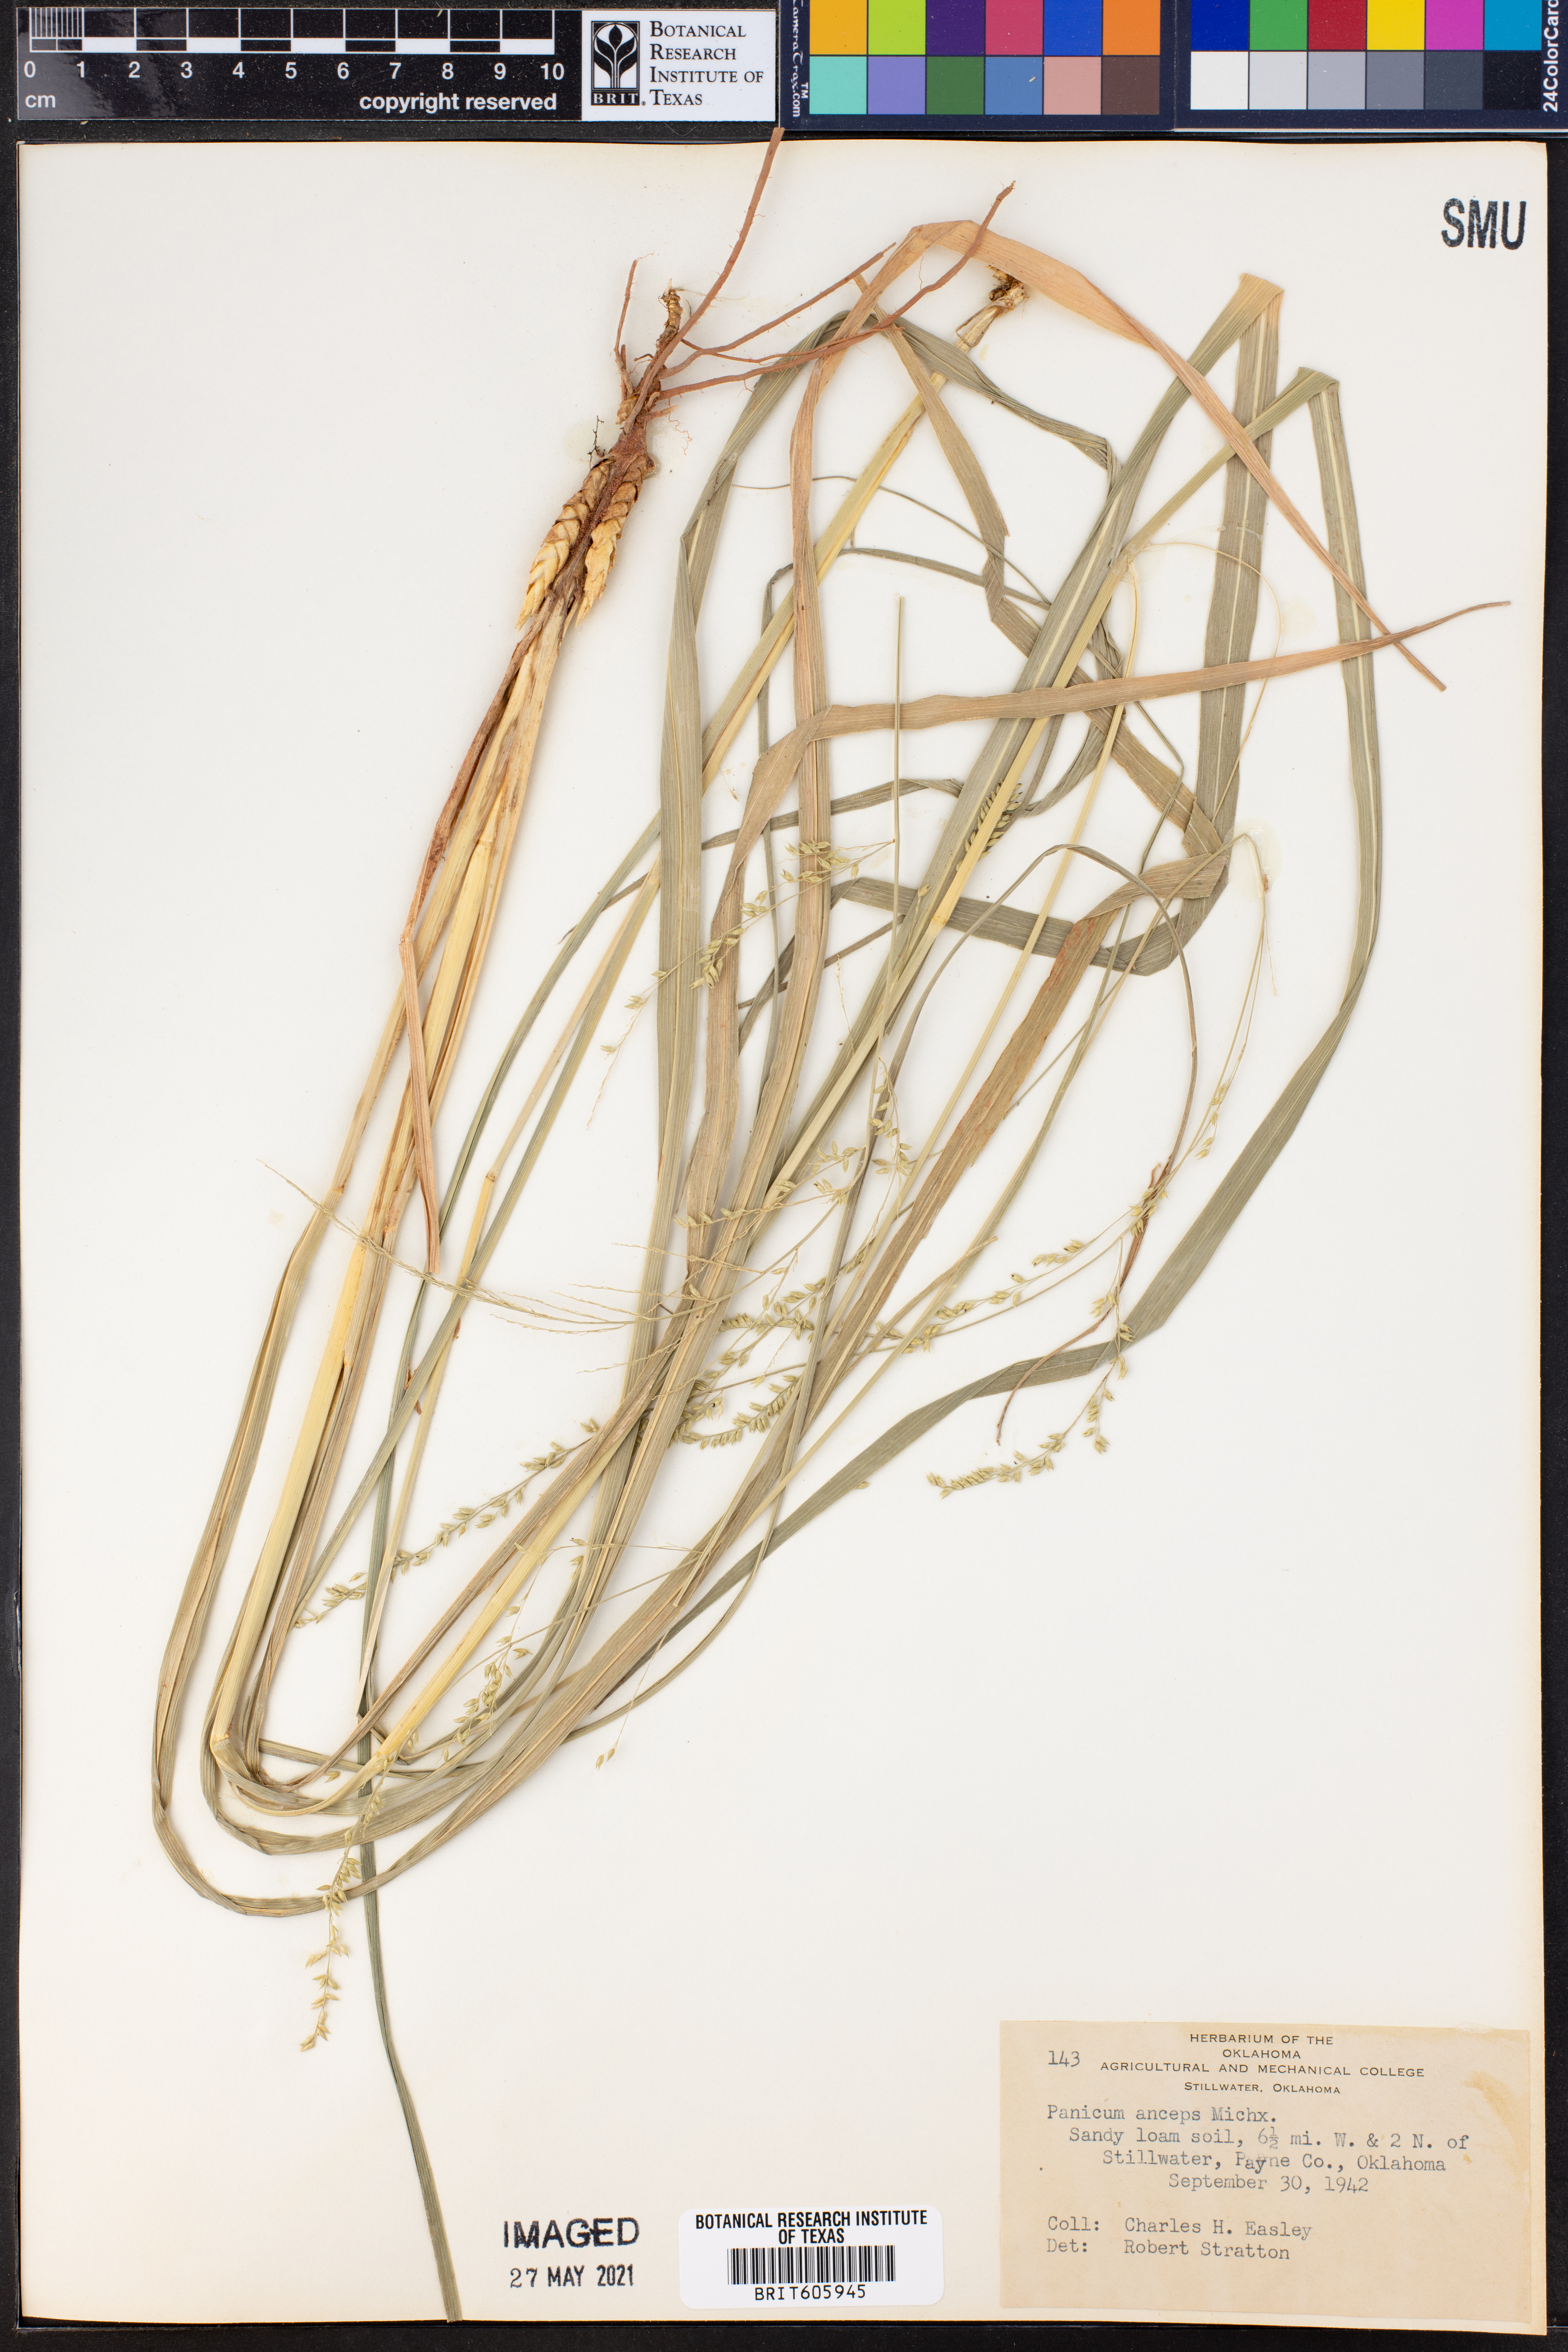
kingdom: Plantae
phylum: Tracheophyta
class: Liliopsida
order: Poales
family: Poaceae
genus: Coleataenia
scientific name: Coleataenia anceps
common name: Beaked panic grass
